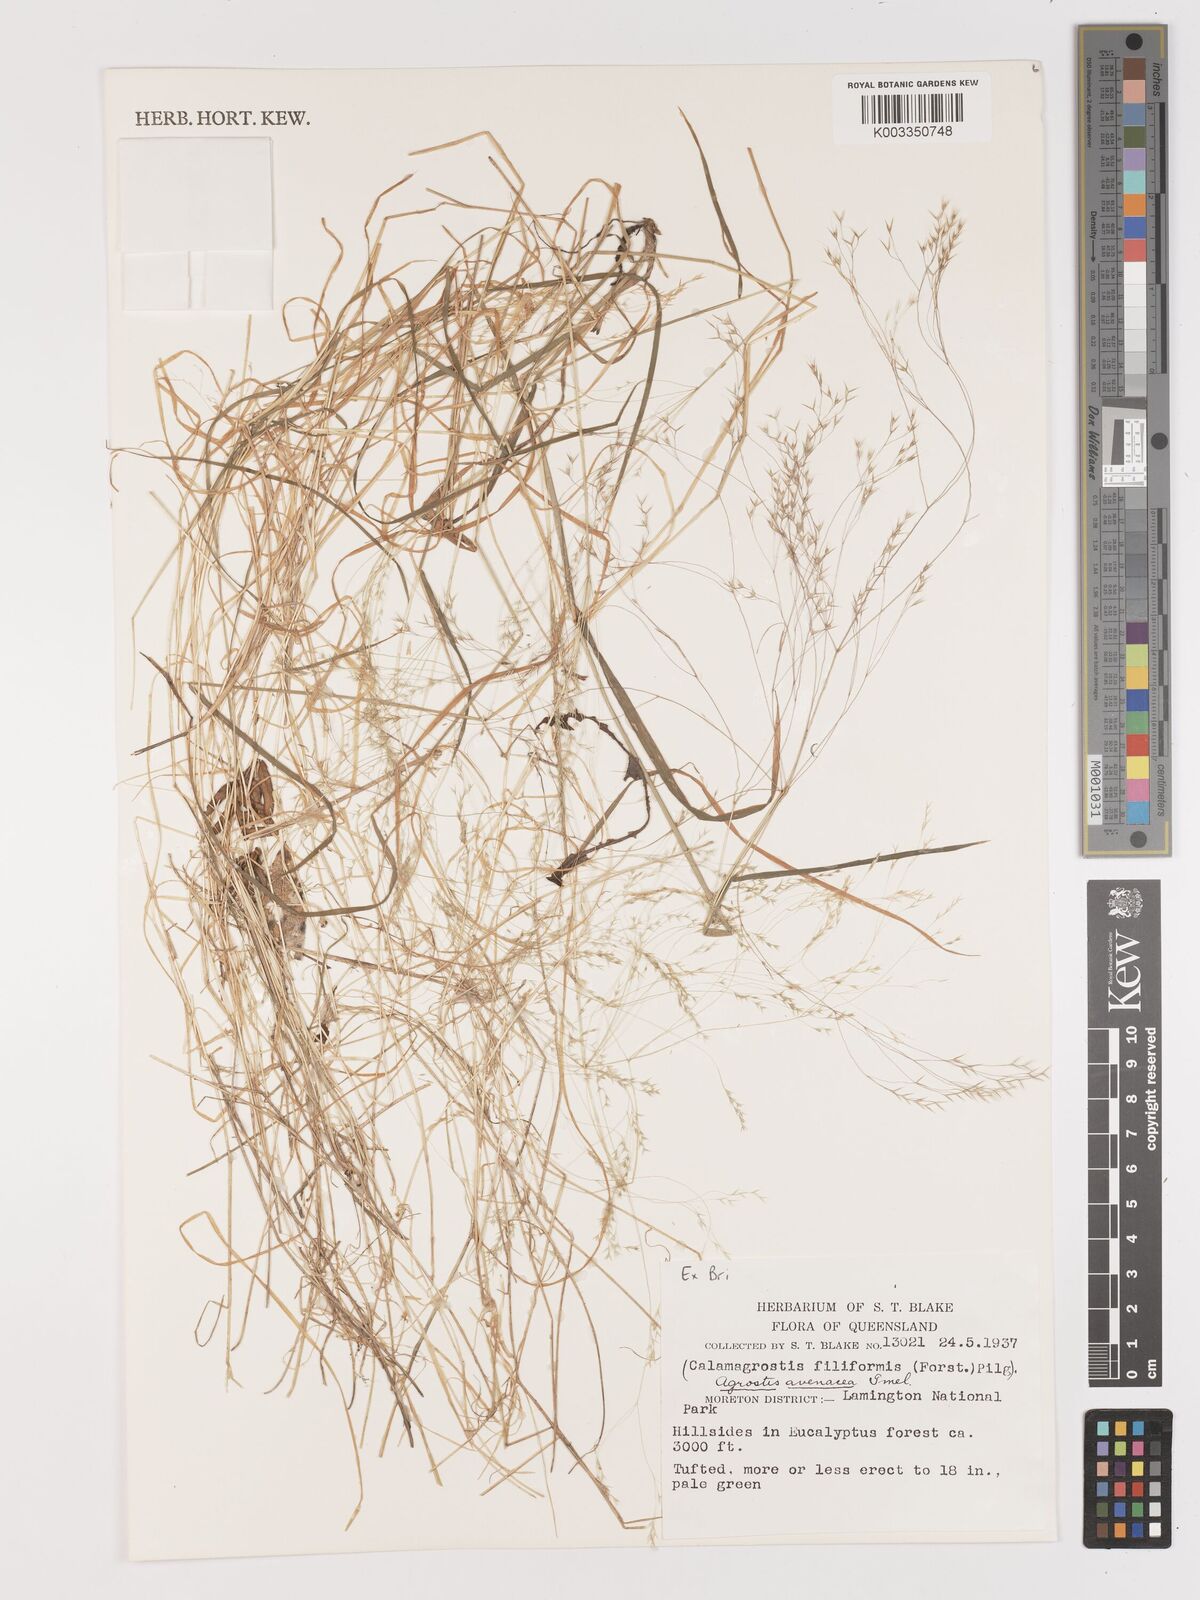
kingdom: Plantae
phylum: Tracheophyta
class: Liliopsida
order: Poales
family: Poaceae
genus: Lachnagrostis
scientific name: Lachnagrostis filiformis
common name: Bentgrass
